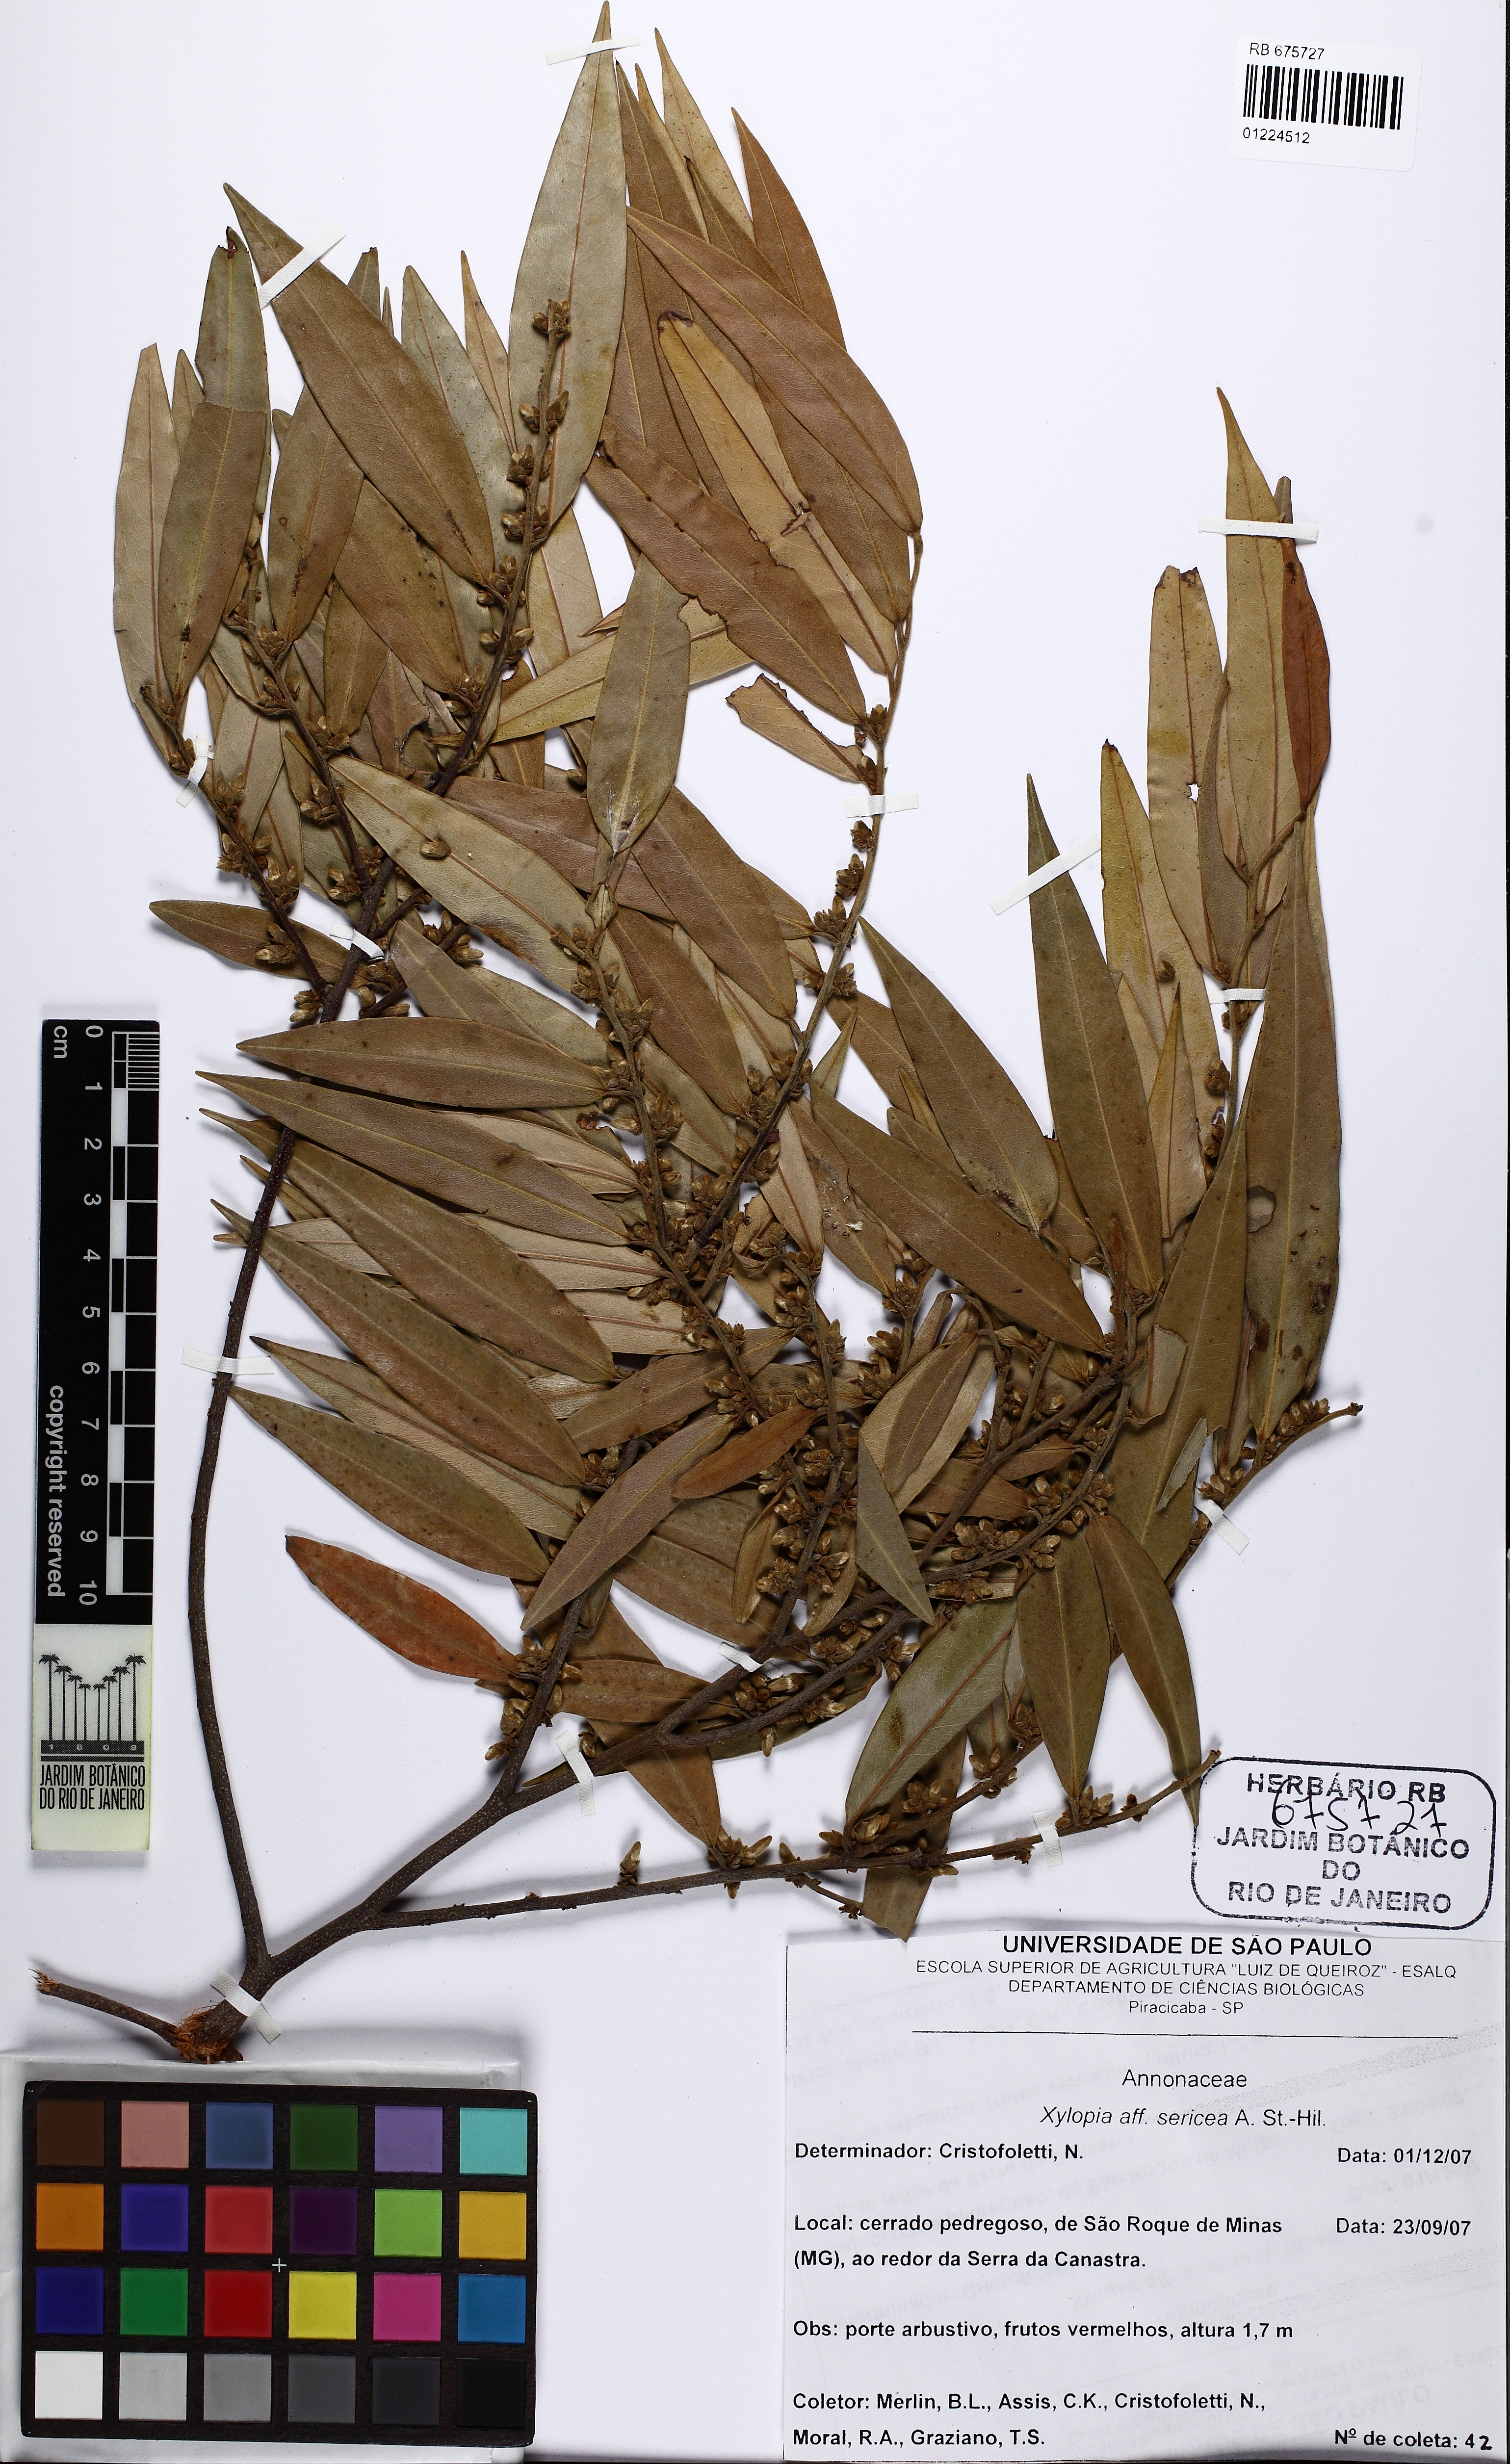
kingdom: Plantae
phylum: Tracheophyta
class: Magnoliopsida
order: Magnoliales
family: Annonaceae
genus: Xylopia
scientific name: Xylopia sericea
